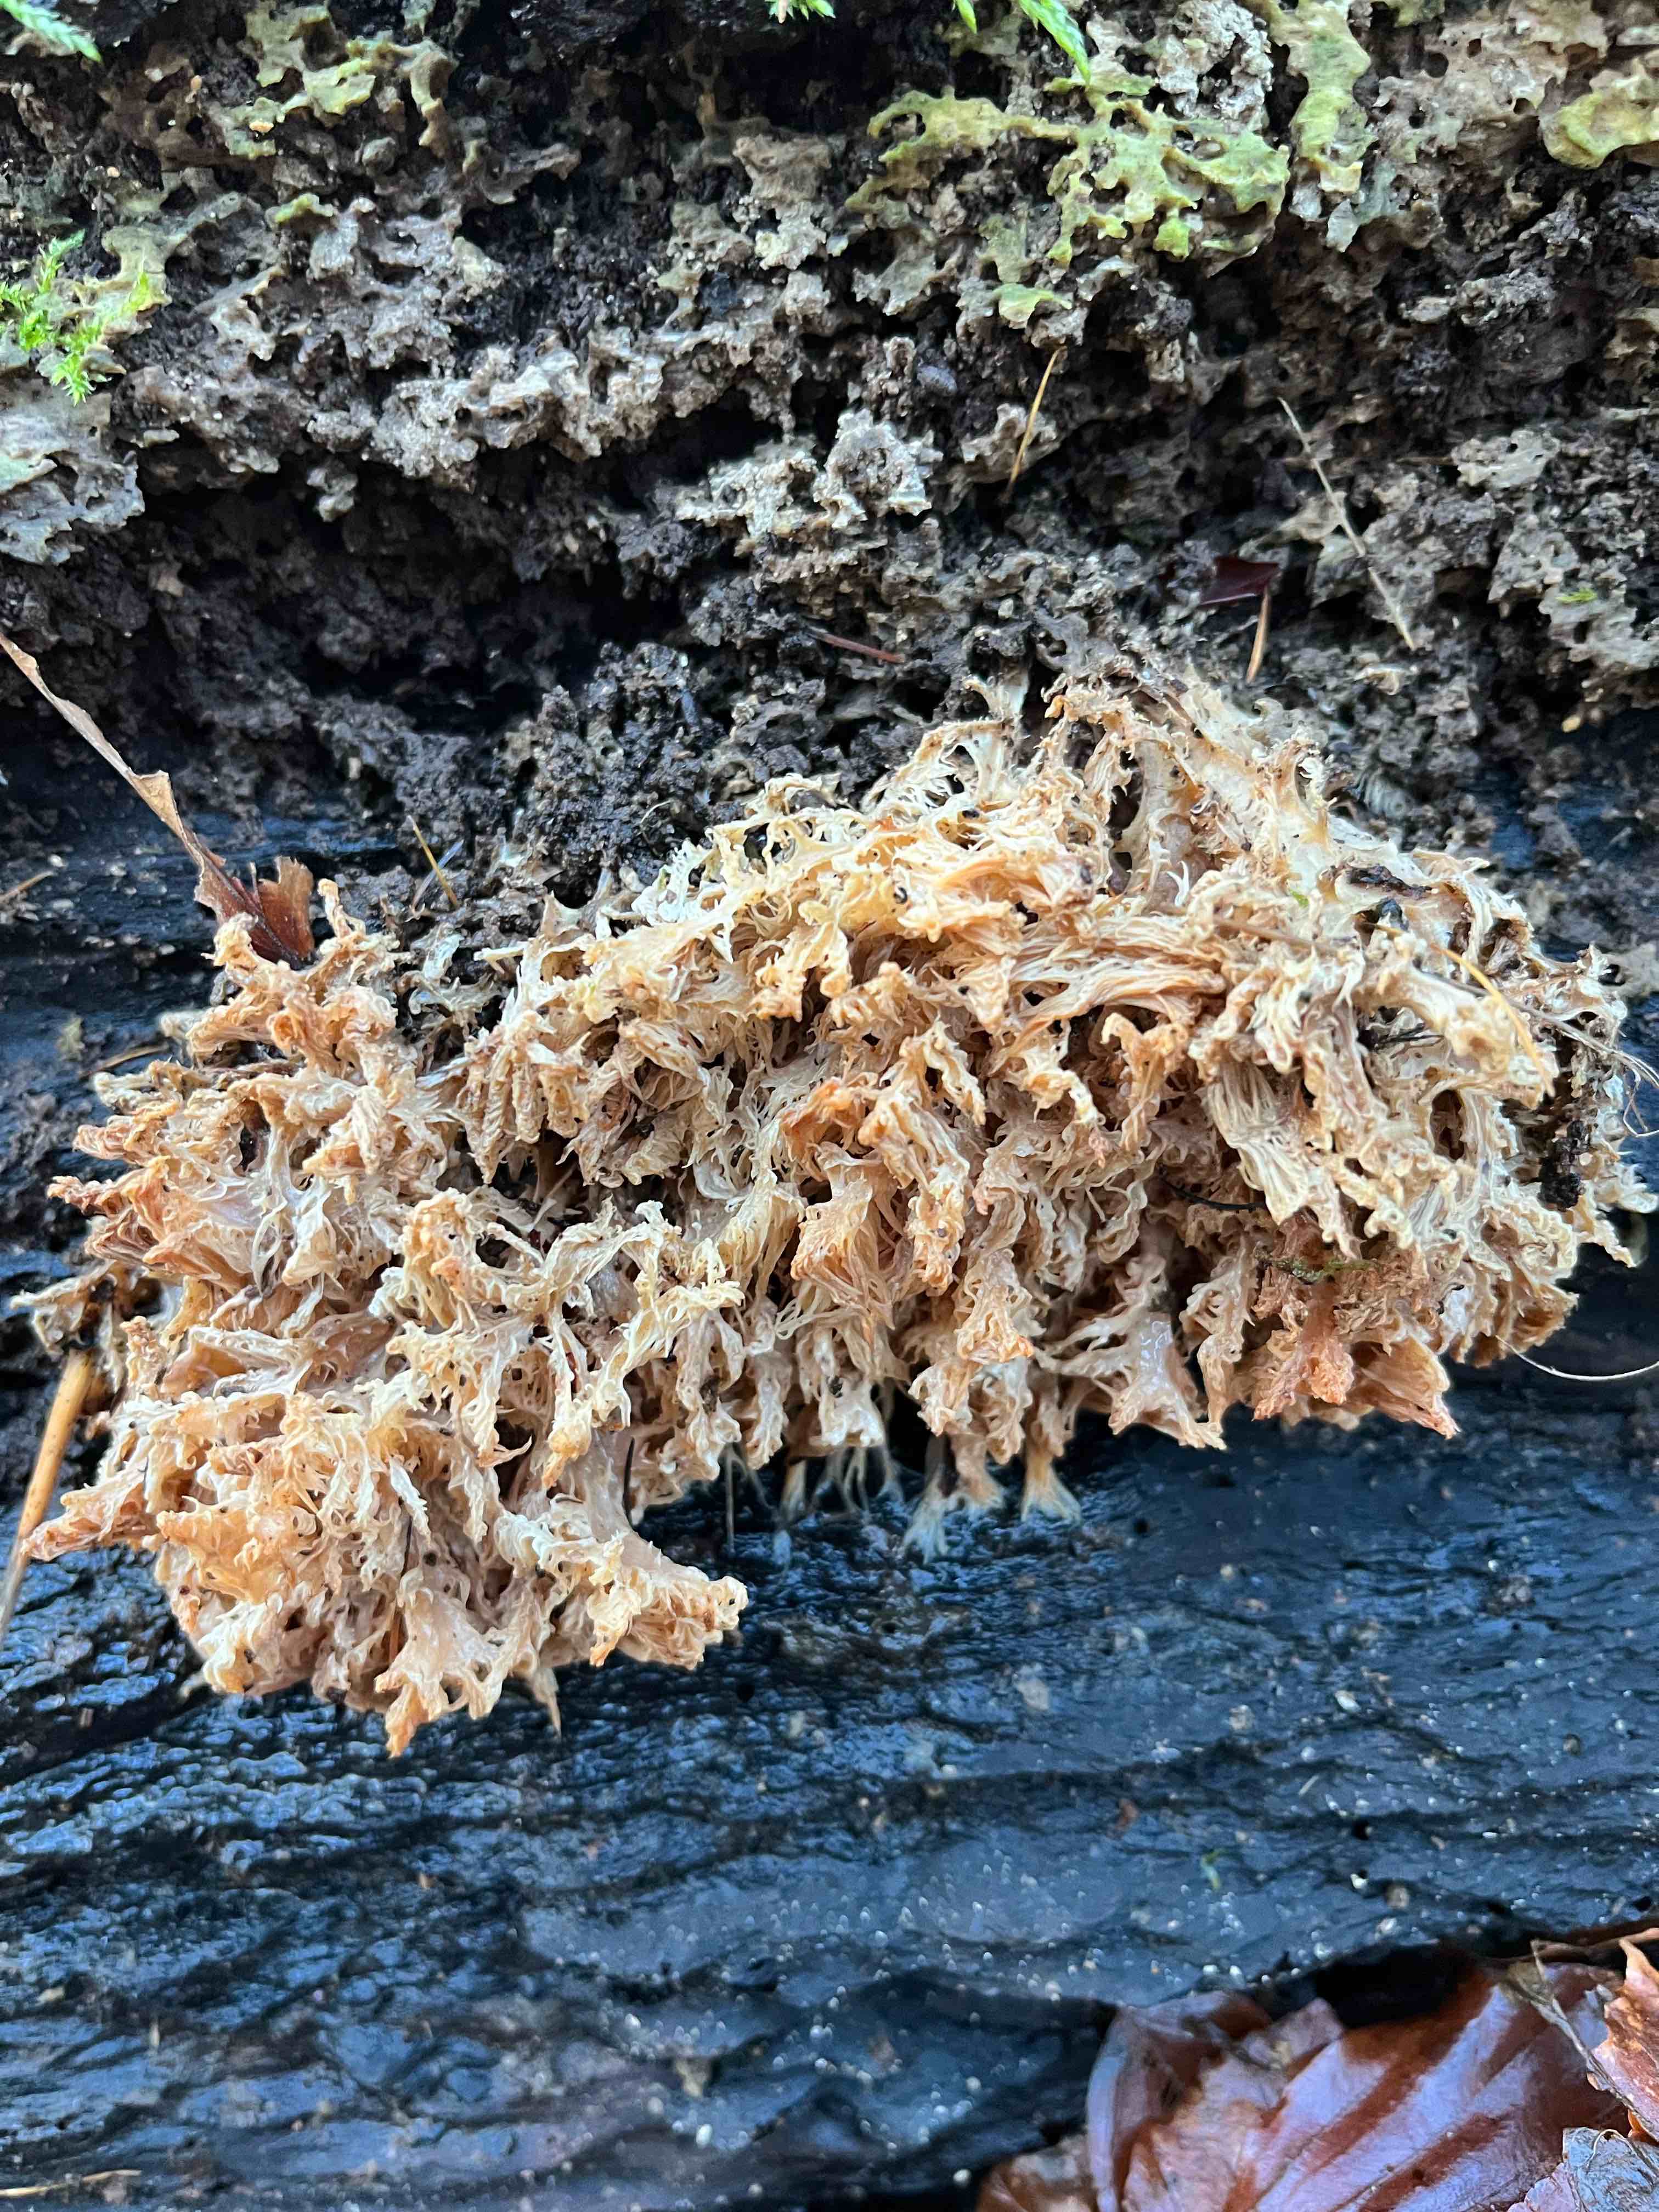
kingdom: Fungi
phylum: Basidiomycota
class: Agaricomycetes
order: Russulales
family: Hericiaceae
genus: Hericium
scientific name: Hericium coralloides
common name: koralpigsvamp
